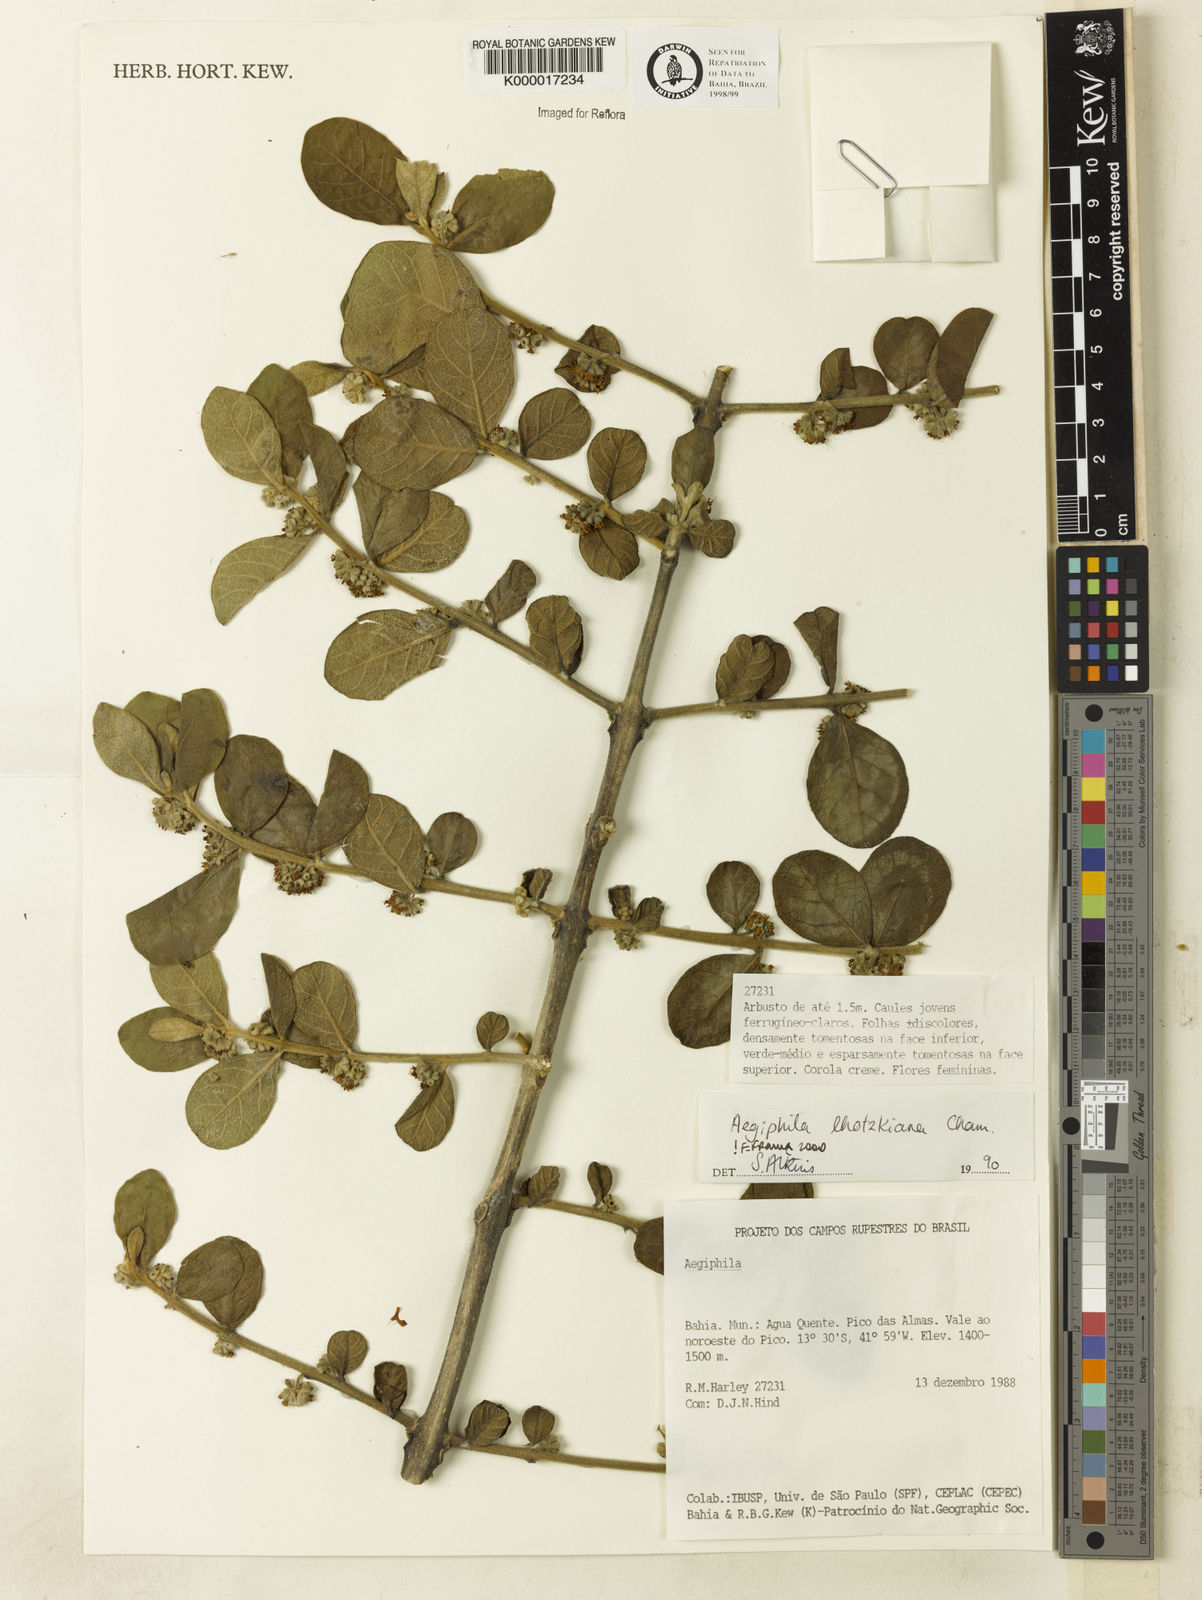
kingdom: Plantae
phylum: Tracheophyta
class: Magnoliopsida
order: Lamiales
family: Lamiaceae
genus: Aegiphila
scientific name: Aegiphila verticillata
